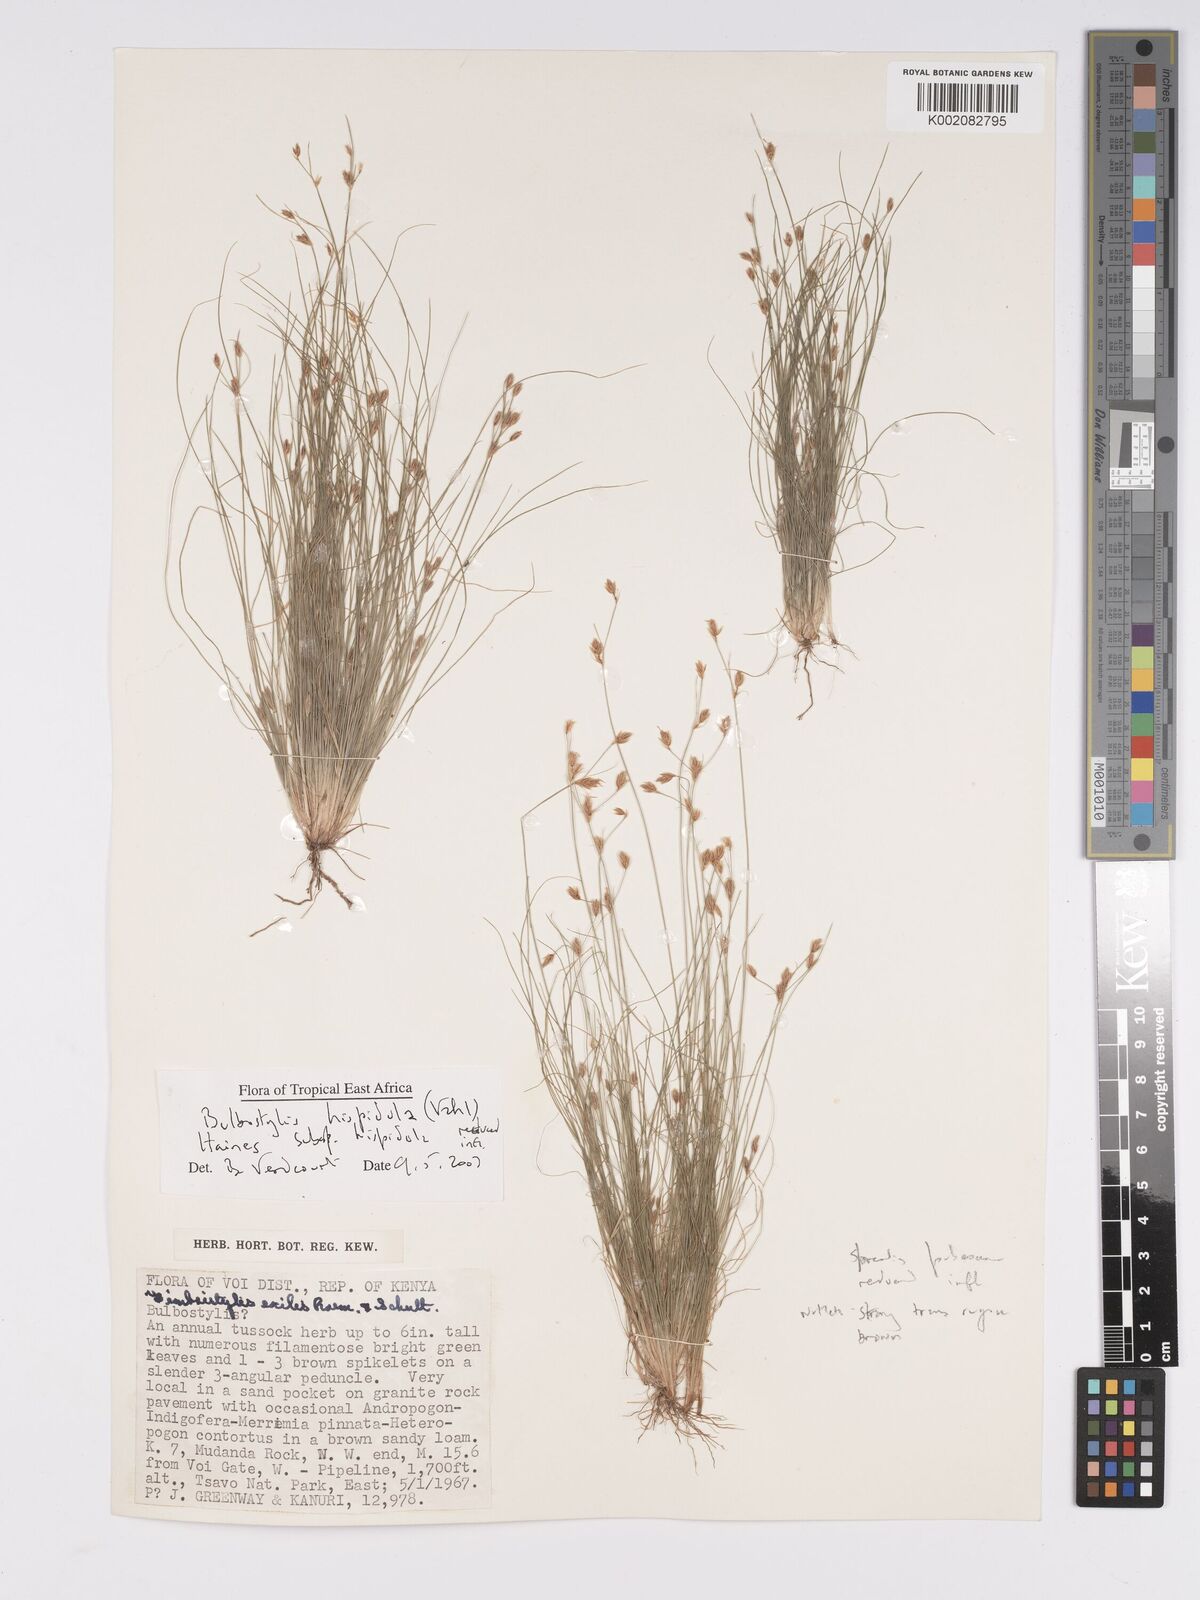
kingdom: Plantae
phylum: Tracheophyta
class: Liliopsida
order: Poales
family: Cyperaceae
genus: Bulbostylis
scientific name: Bulbostylis hispidula
